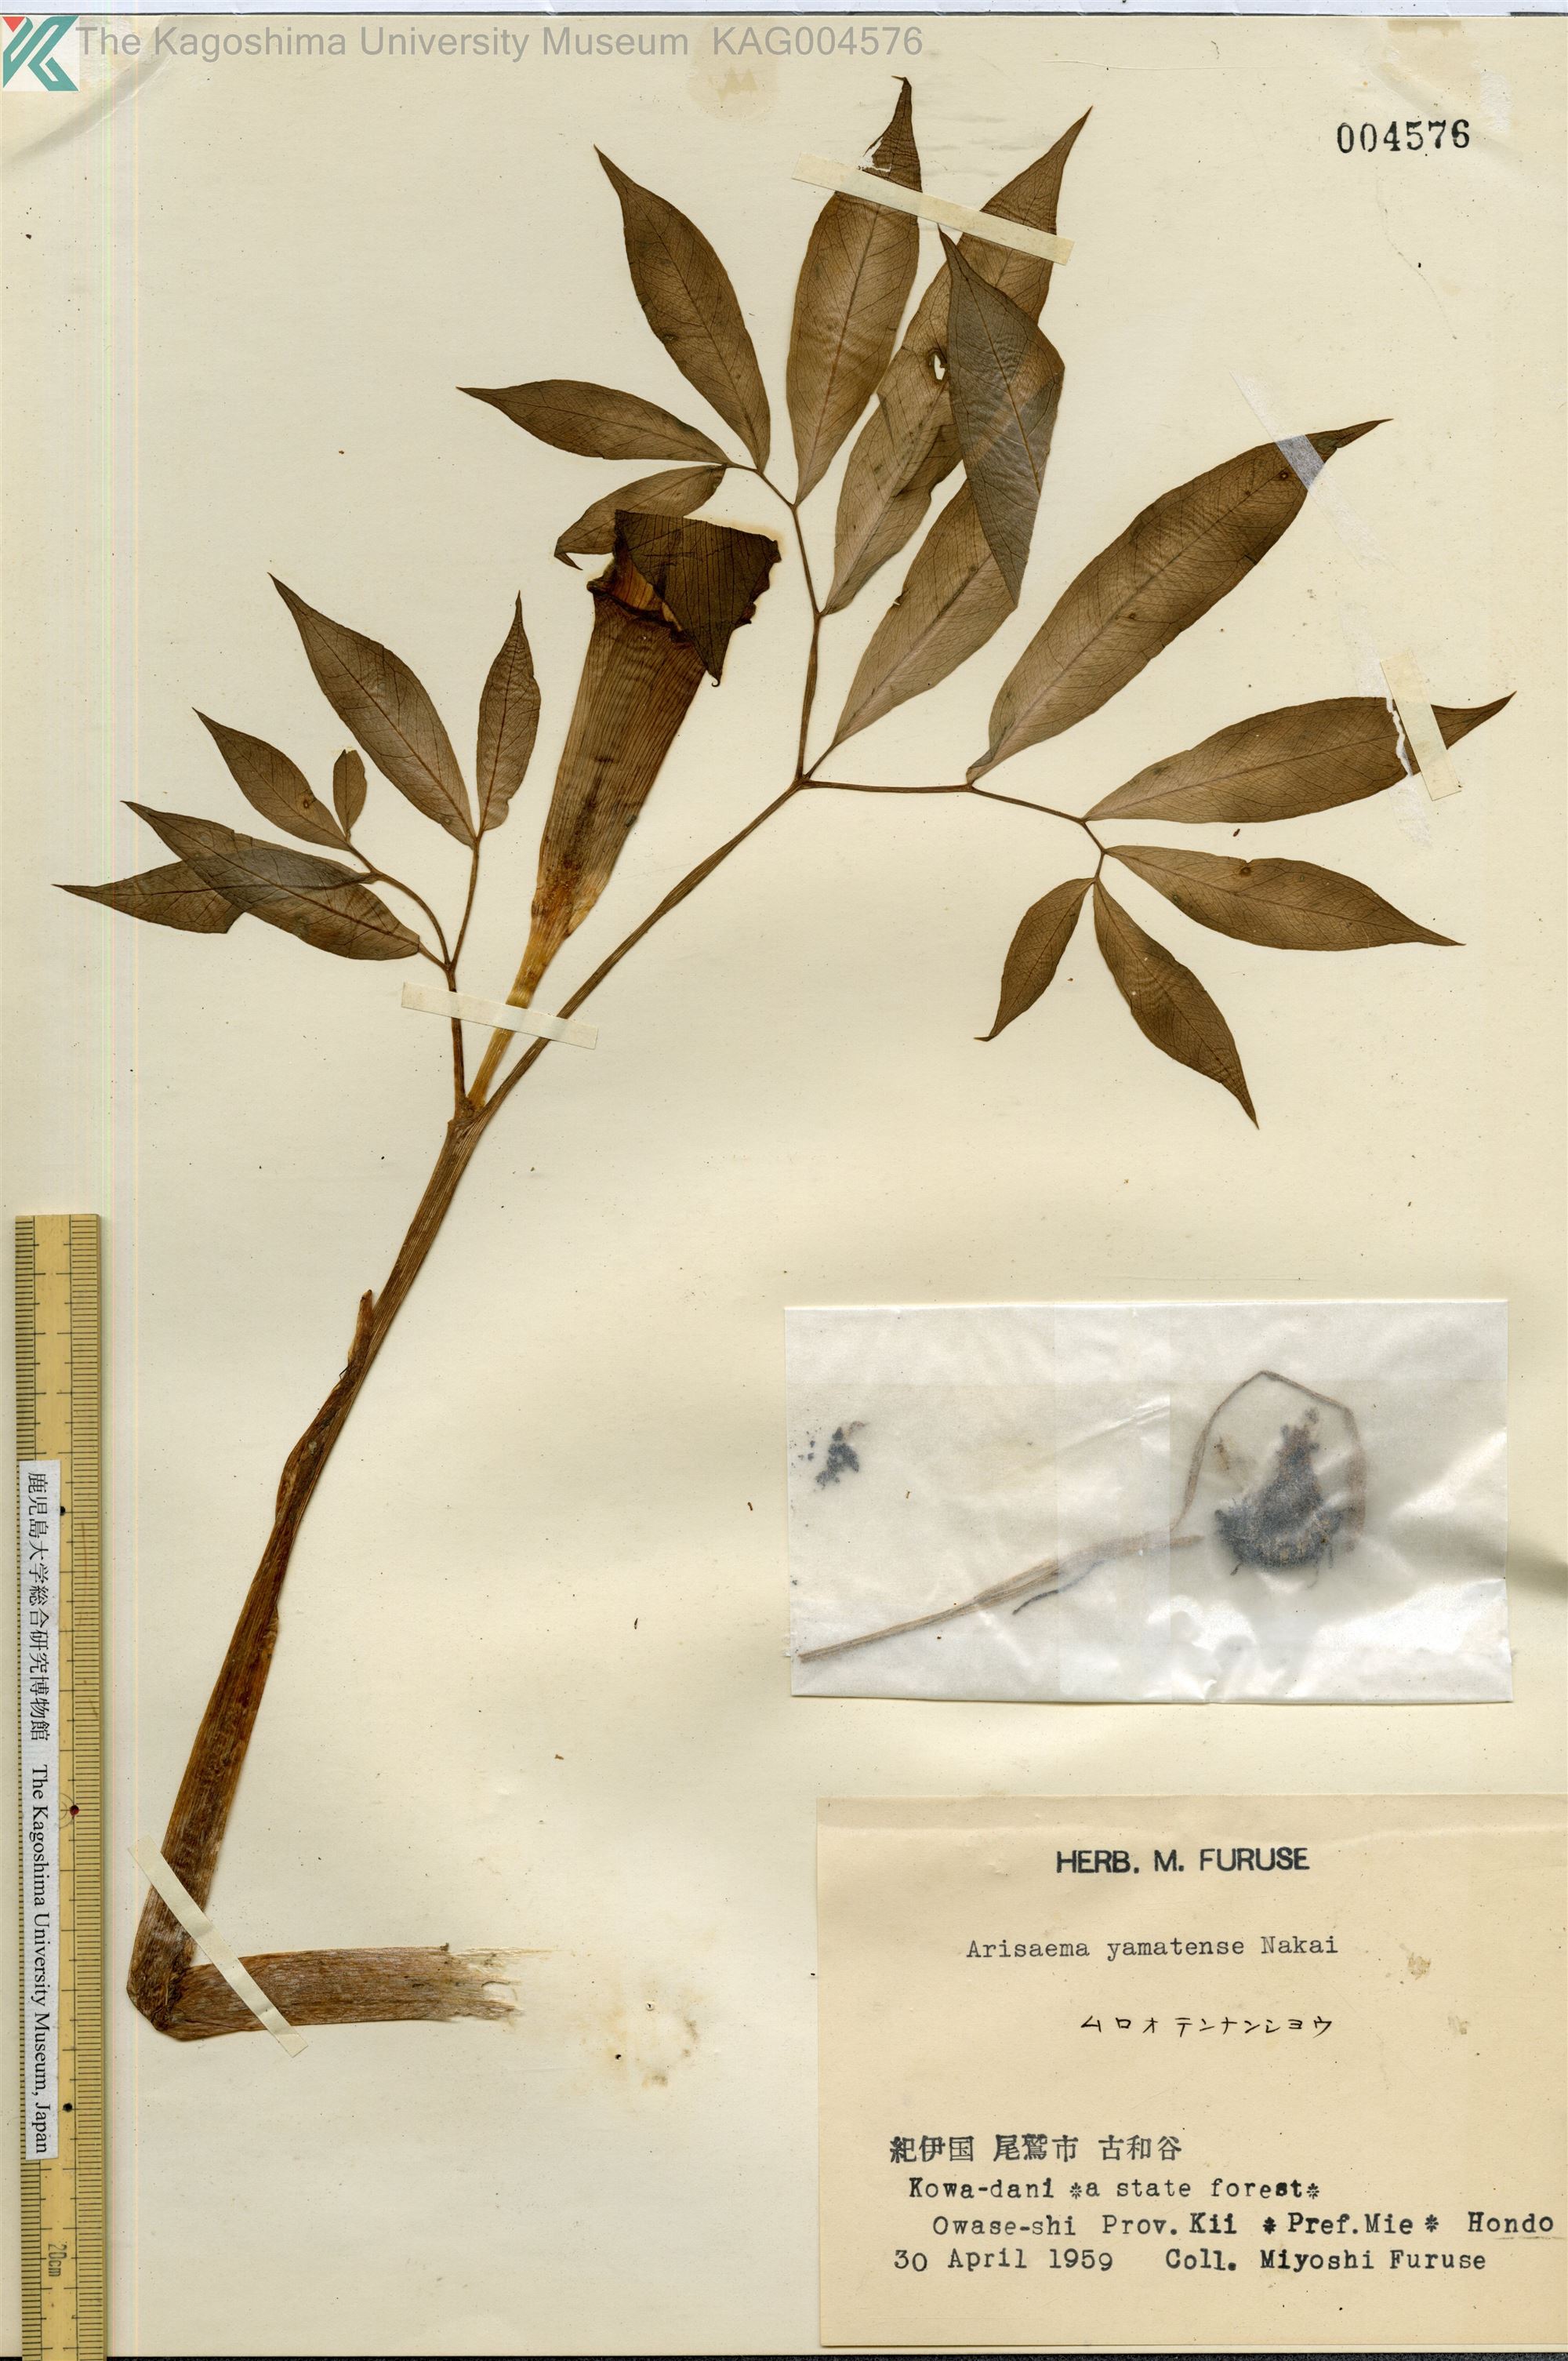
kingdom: Plantae
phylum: Tracheophyta
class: Liliopsida
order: Alismatales
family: Araceae
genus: Arisaema
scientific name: Arisaema yamatense
